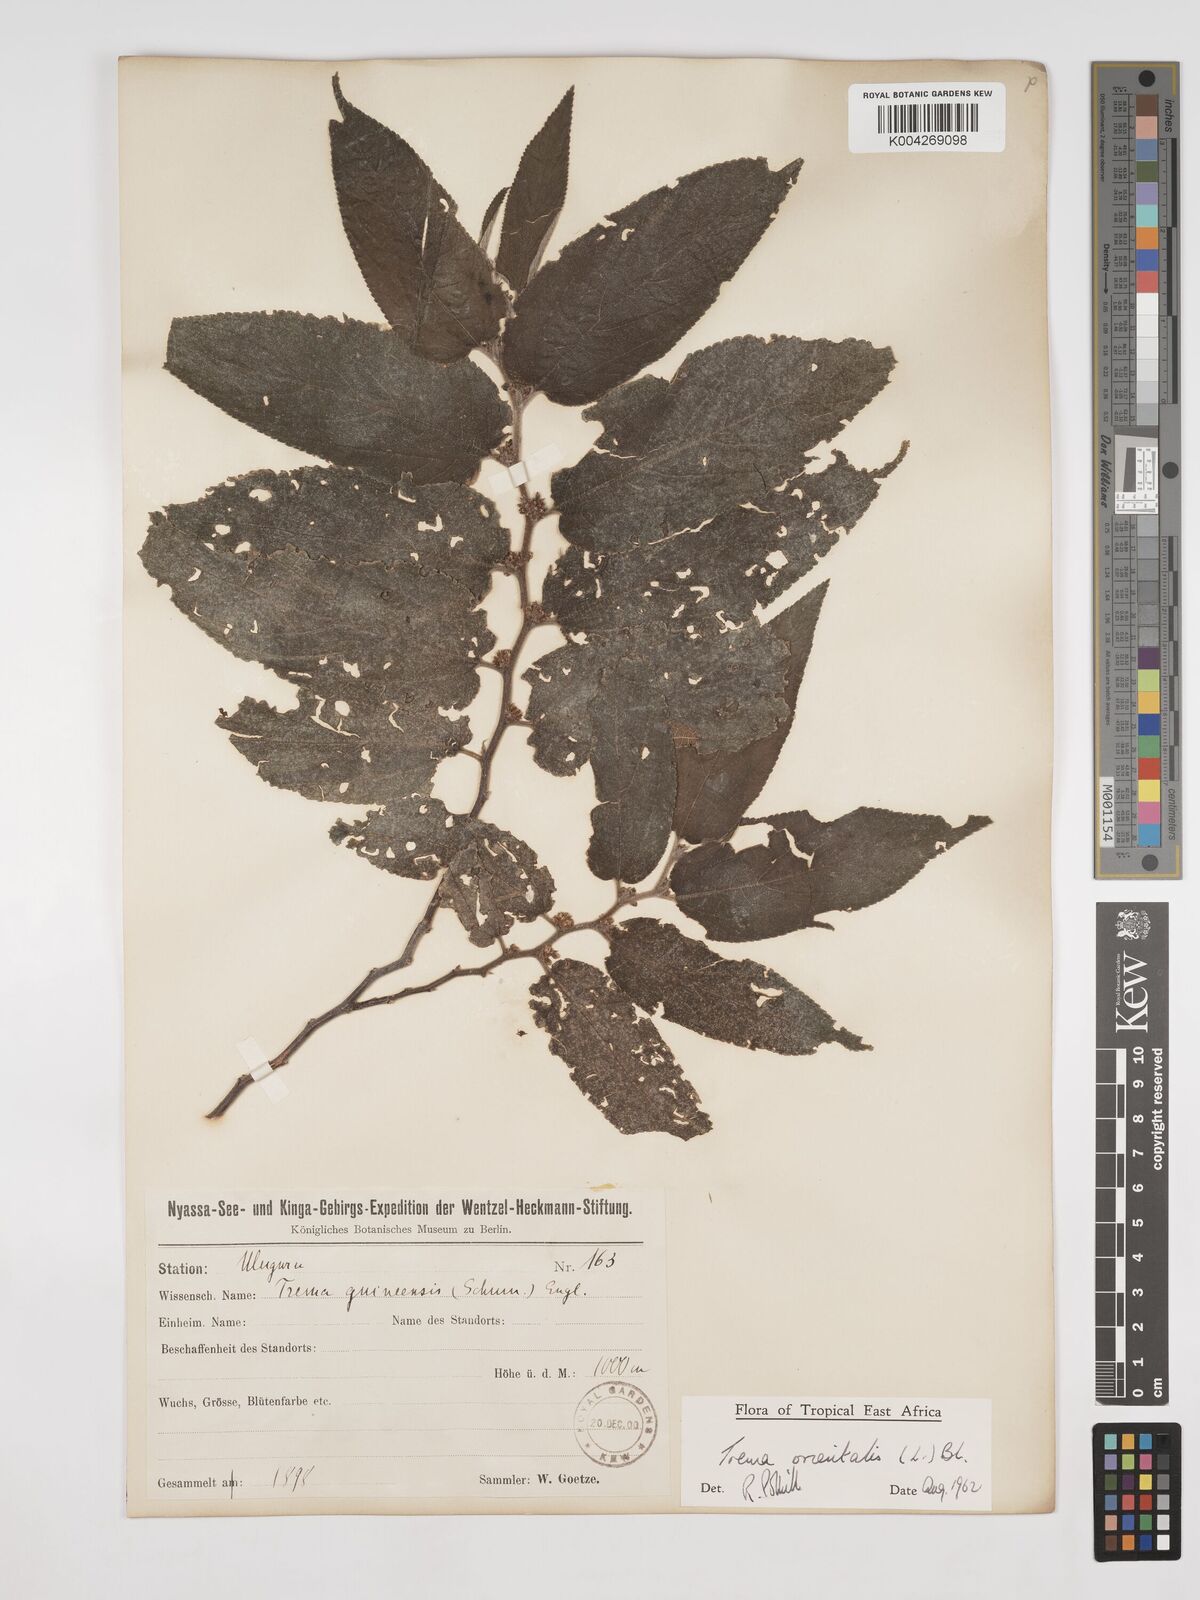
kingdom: Plantae
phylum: Tracheophyta
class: Magnoliopsida
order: Rosales
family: Cannabaceae
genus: Trema
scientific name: Trema orientale
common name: Indian charcoal tree
